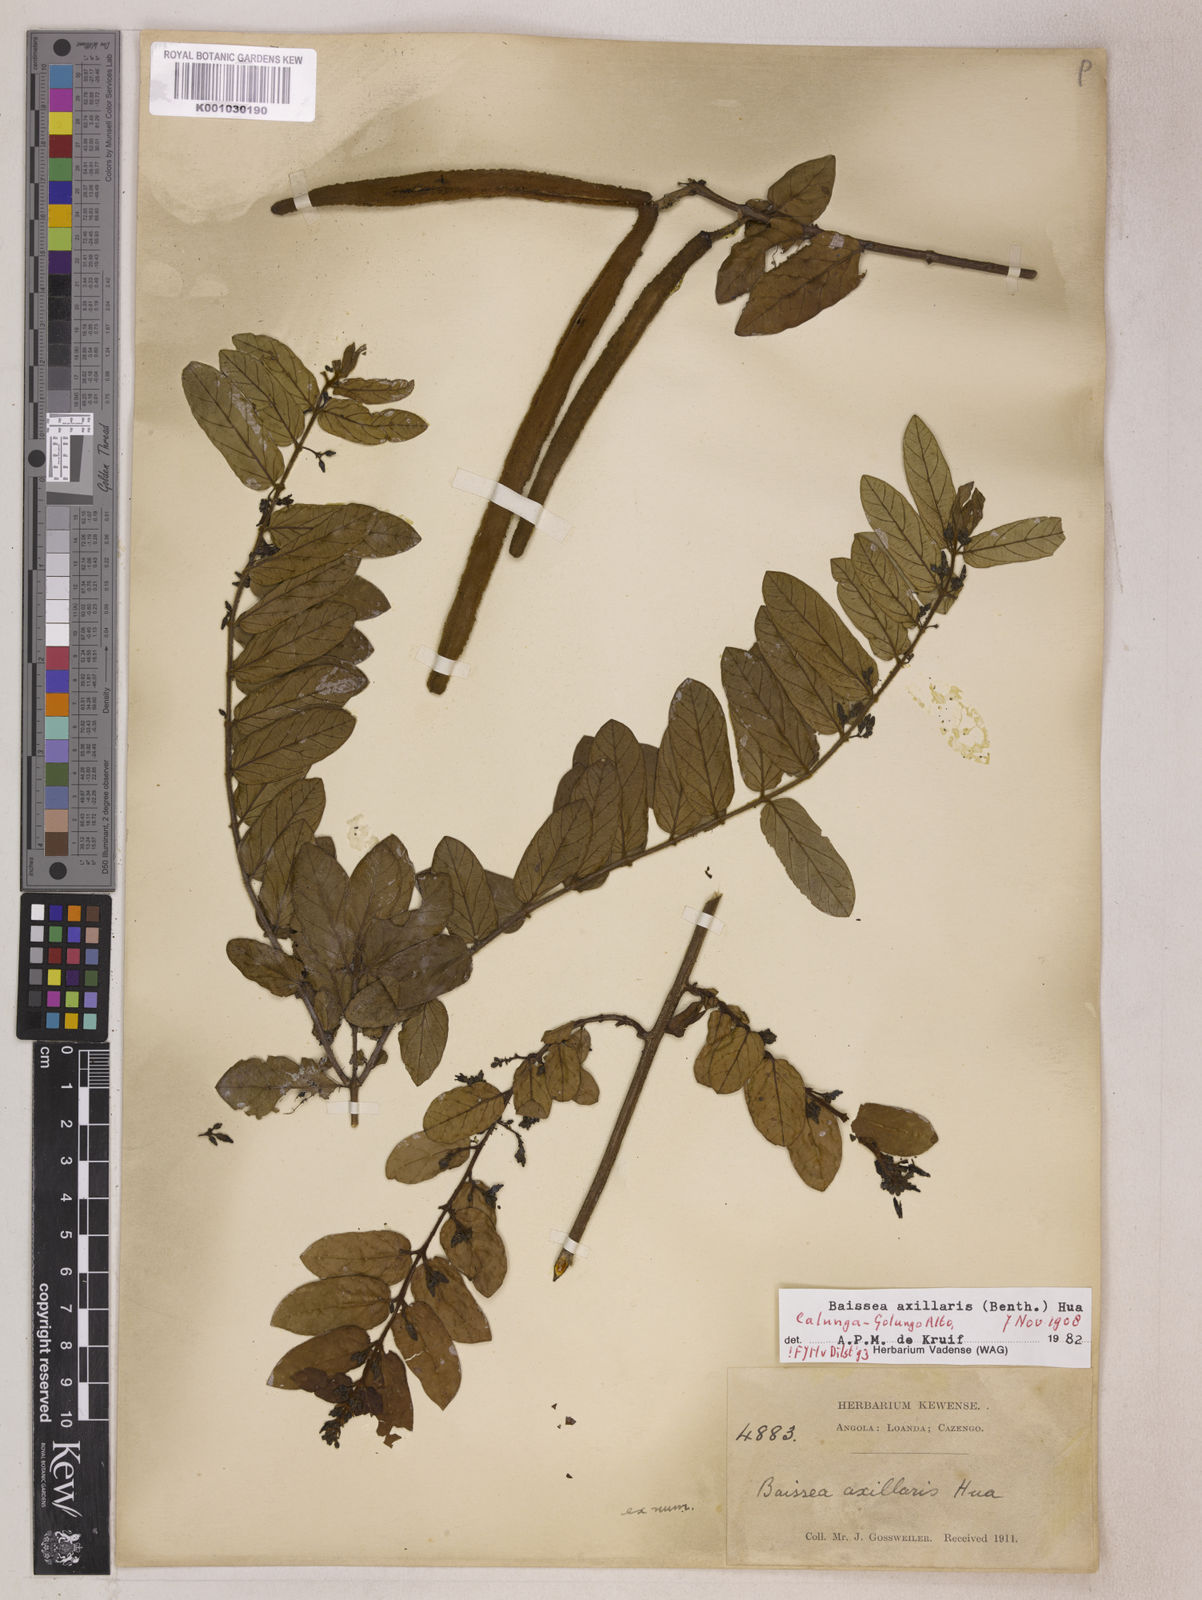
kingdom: Plantae
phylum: Tracheophyta
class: Magnoliopsida
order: Gentianales
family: Apocynaceae
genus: Baissea
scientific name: Baissea axillaris
